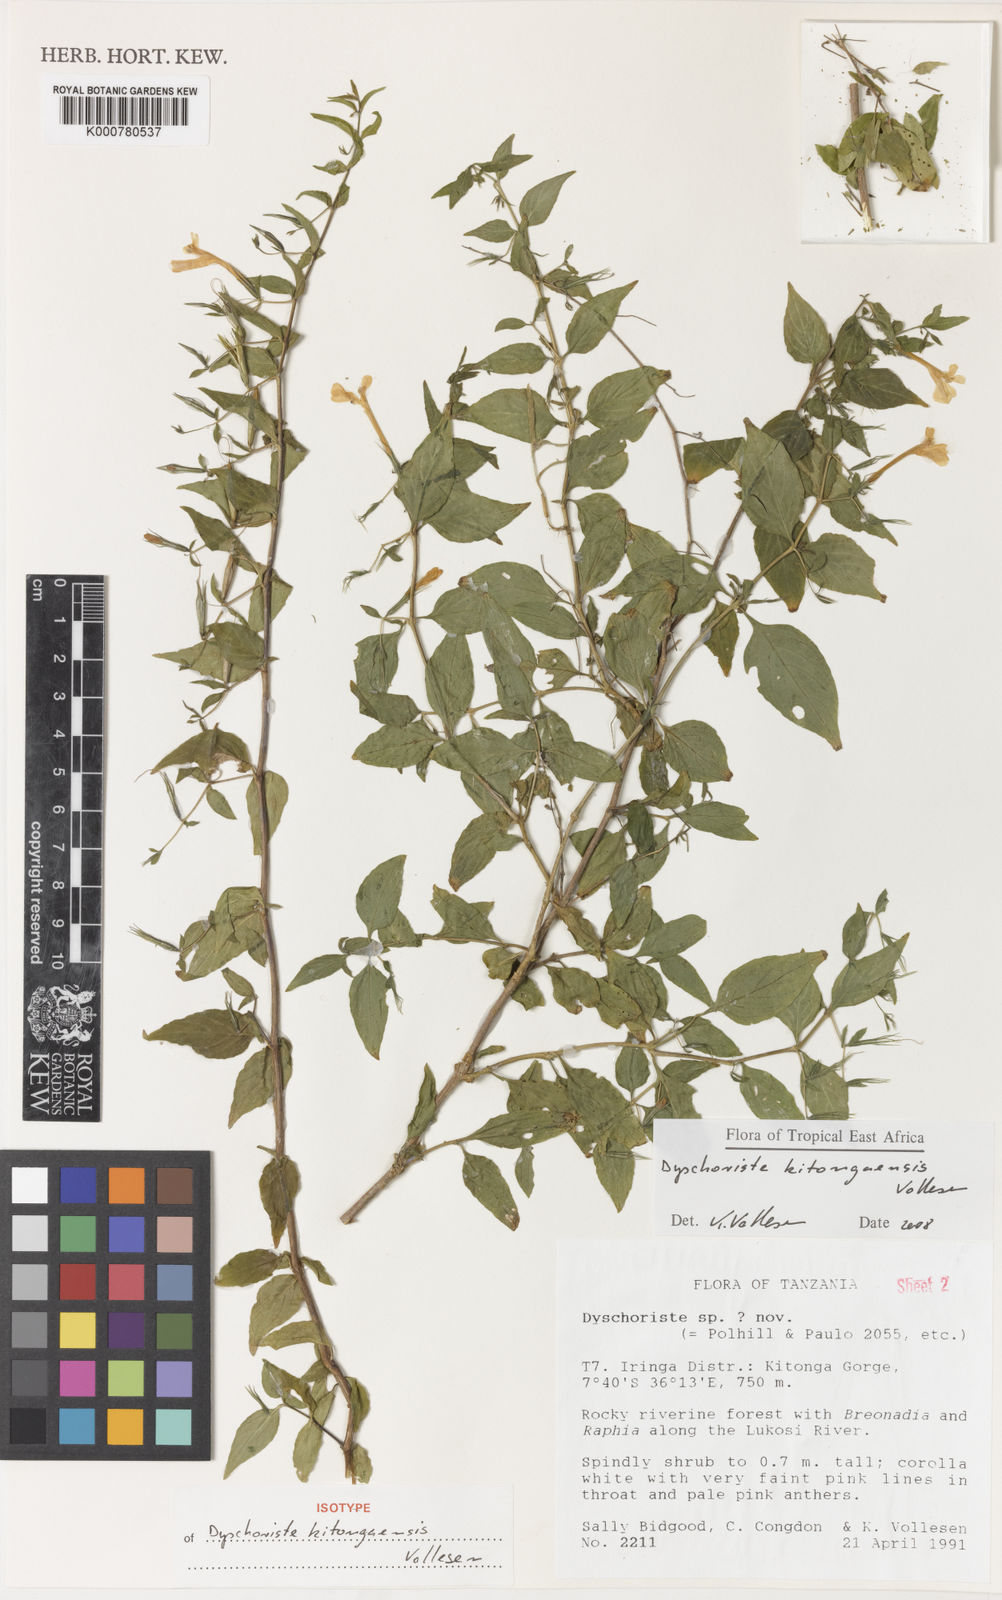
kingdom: Plantae
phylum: Tracheophyta
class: Magnoliopsida
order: Lamiales
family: Acanthaceae
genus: Dyschoriste
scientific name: Dyschoriste kitongaensis
